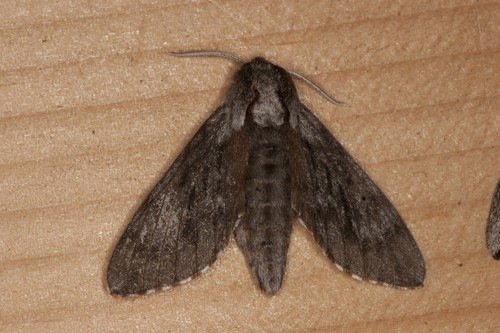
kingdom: Animalia
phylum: Arthropoda
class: Insecta
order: Lepidoptera
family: Sphingidae
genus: Lapara
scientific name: Lapara bombycoides
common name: Northern pine sphinx
